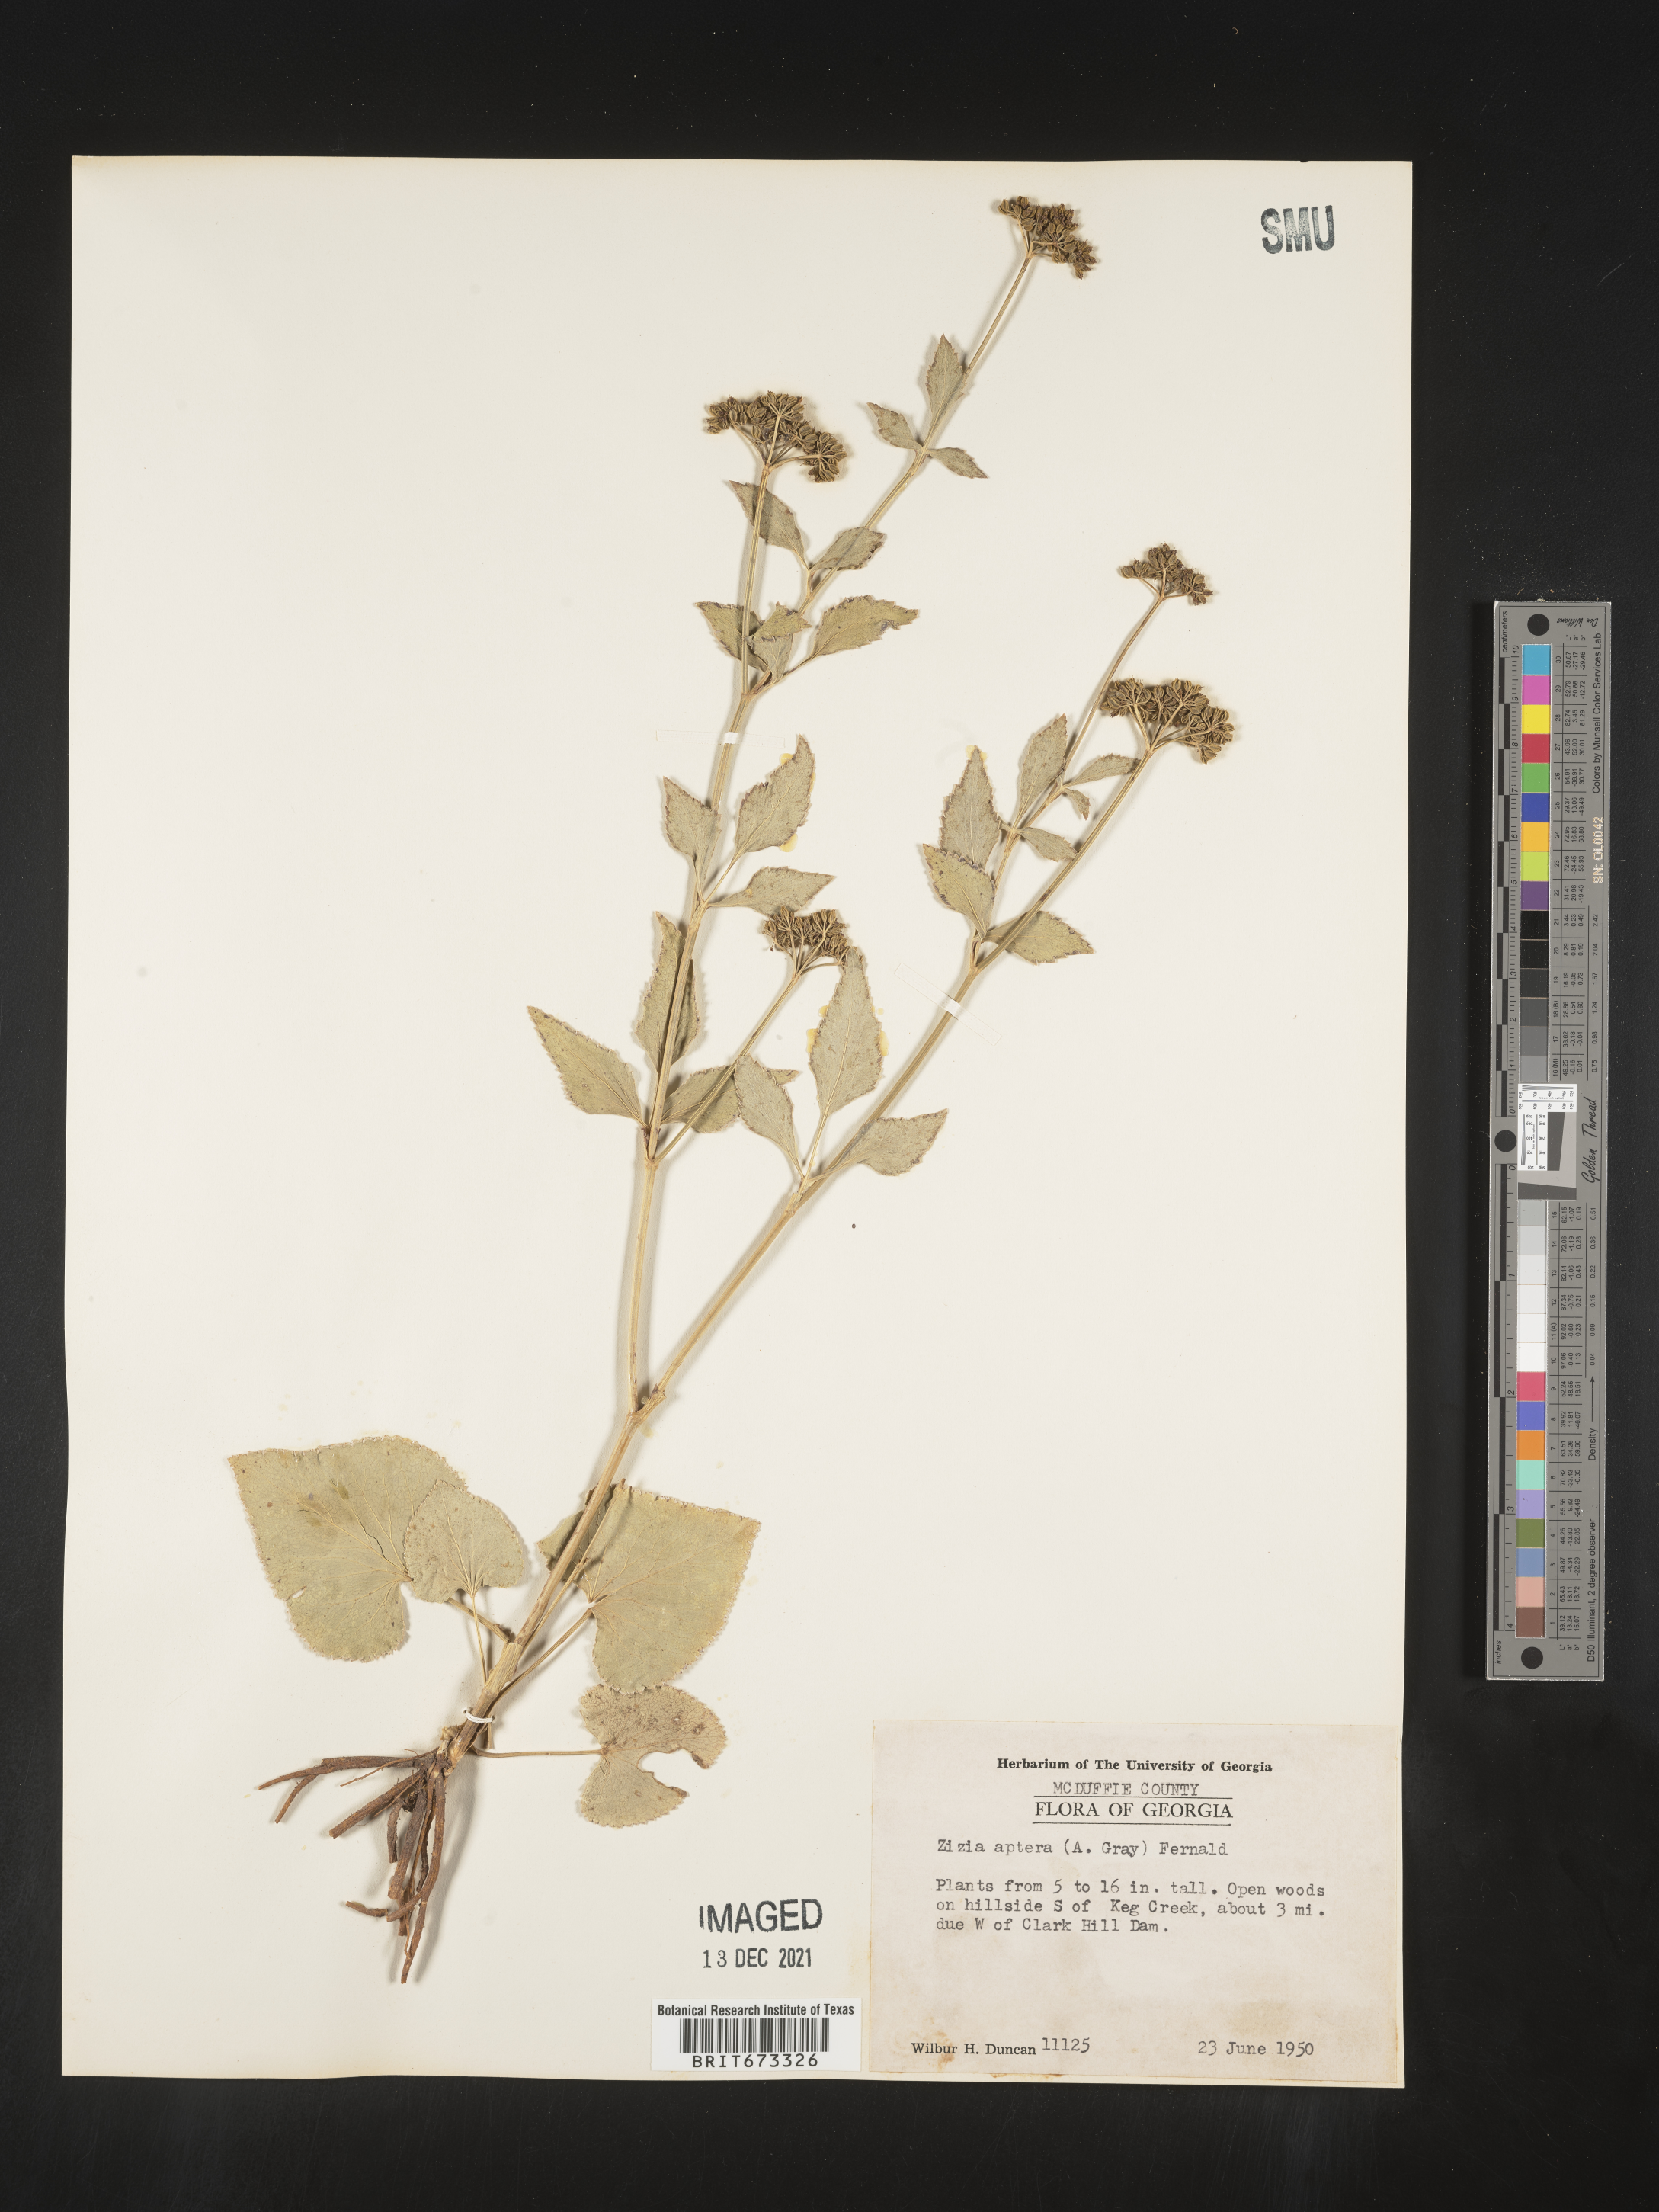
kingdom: Plantae
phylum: Tracheophyta
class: Magnoliopsida
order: Apiales
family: Apiaceae
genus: Zizia
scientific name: Zizia aptera
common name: Heart-leaved alexanders
